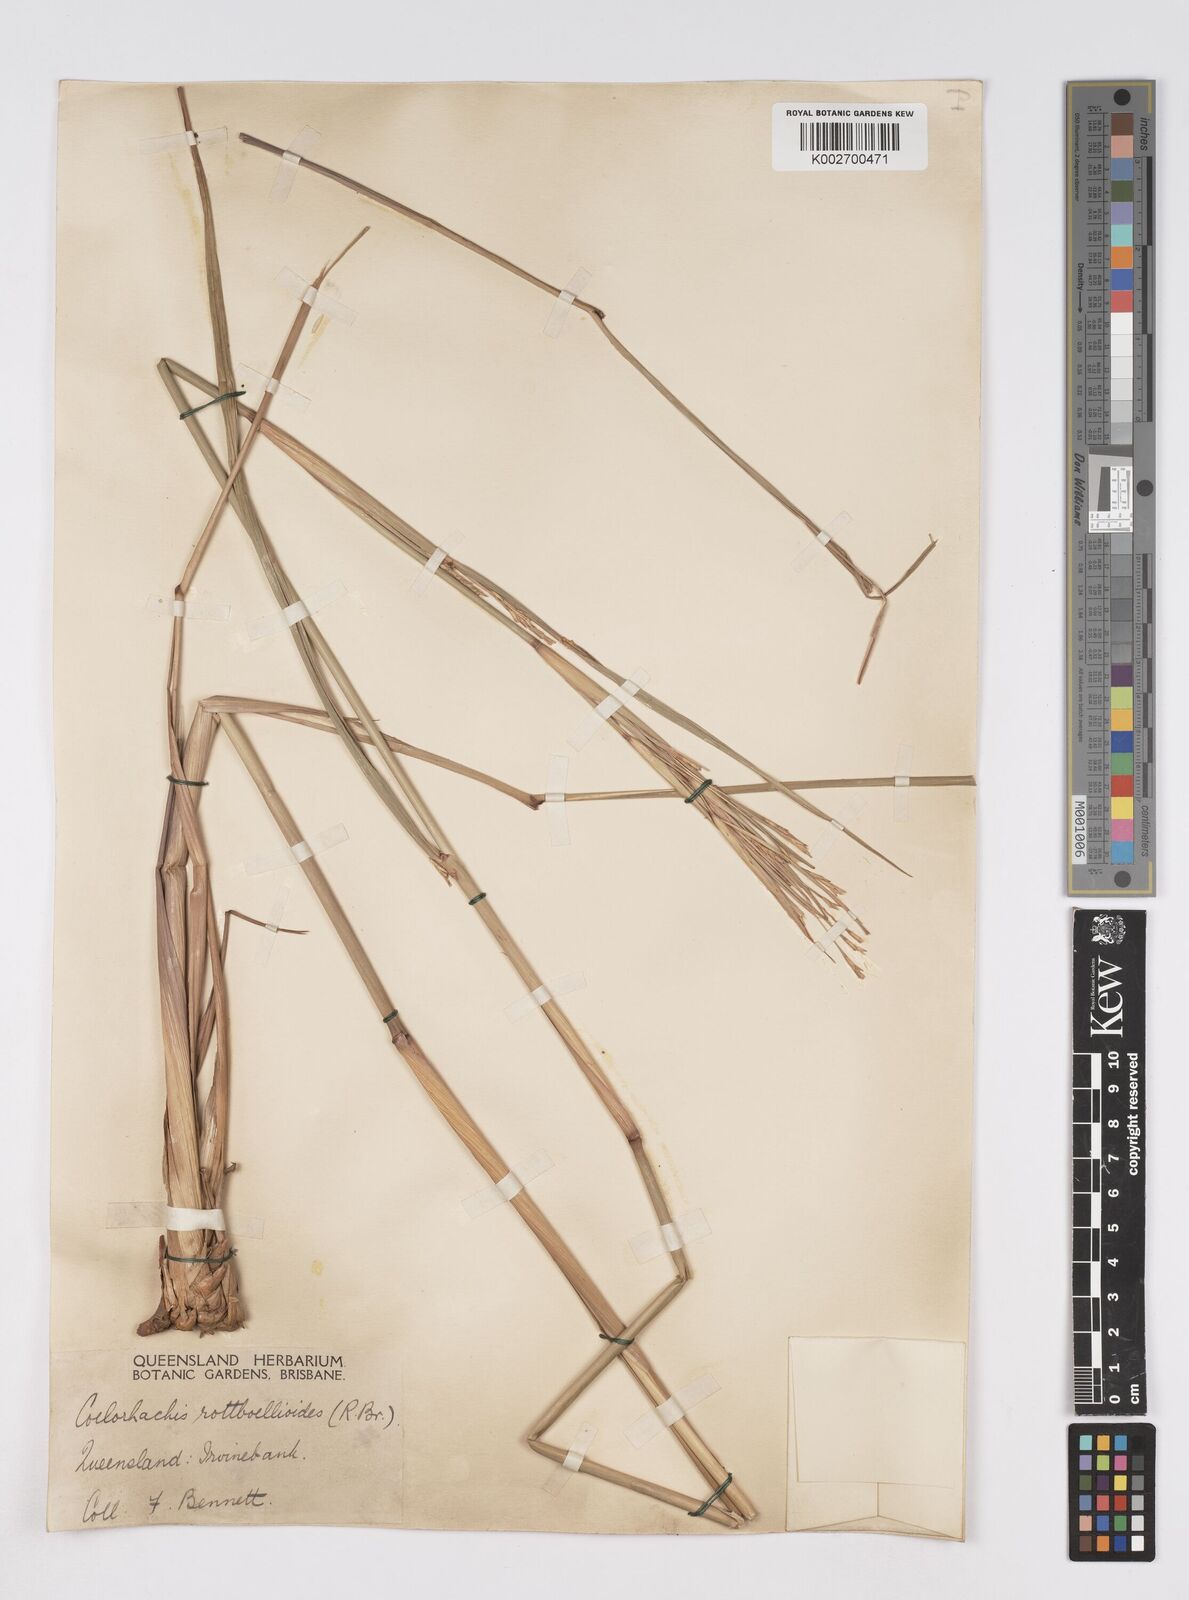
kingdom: Plantae
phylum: Tracheophyta
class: Liliopsida
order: Poales
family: Poaceae
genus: Rottboellia
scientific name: Rottboellia rottboellioides
